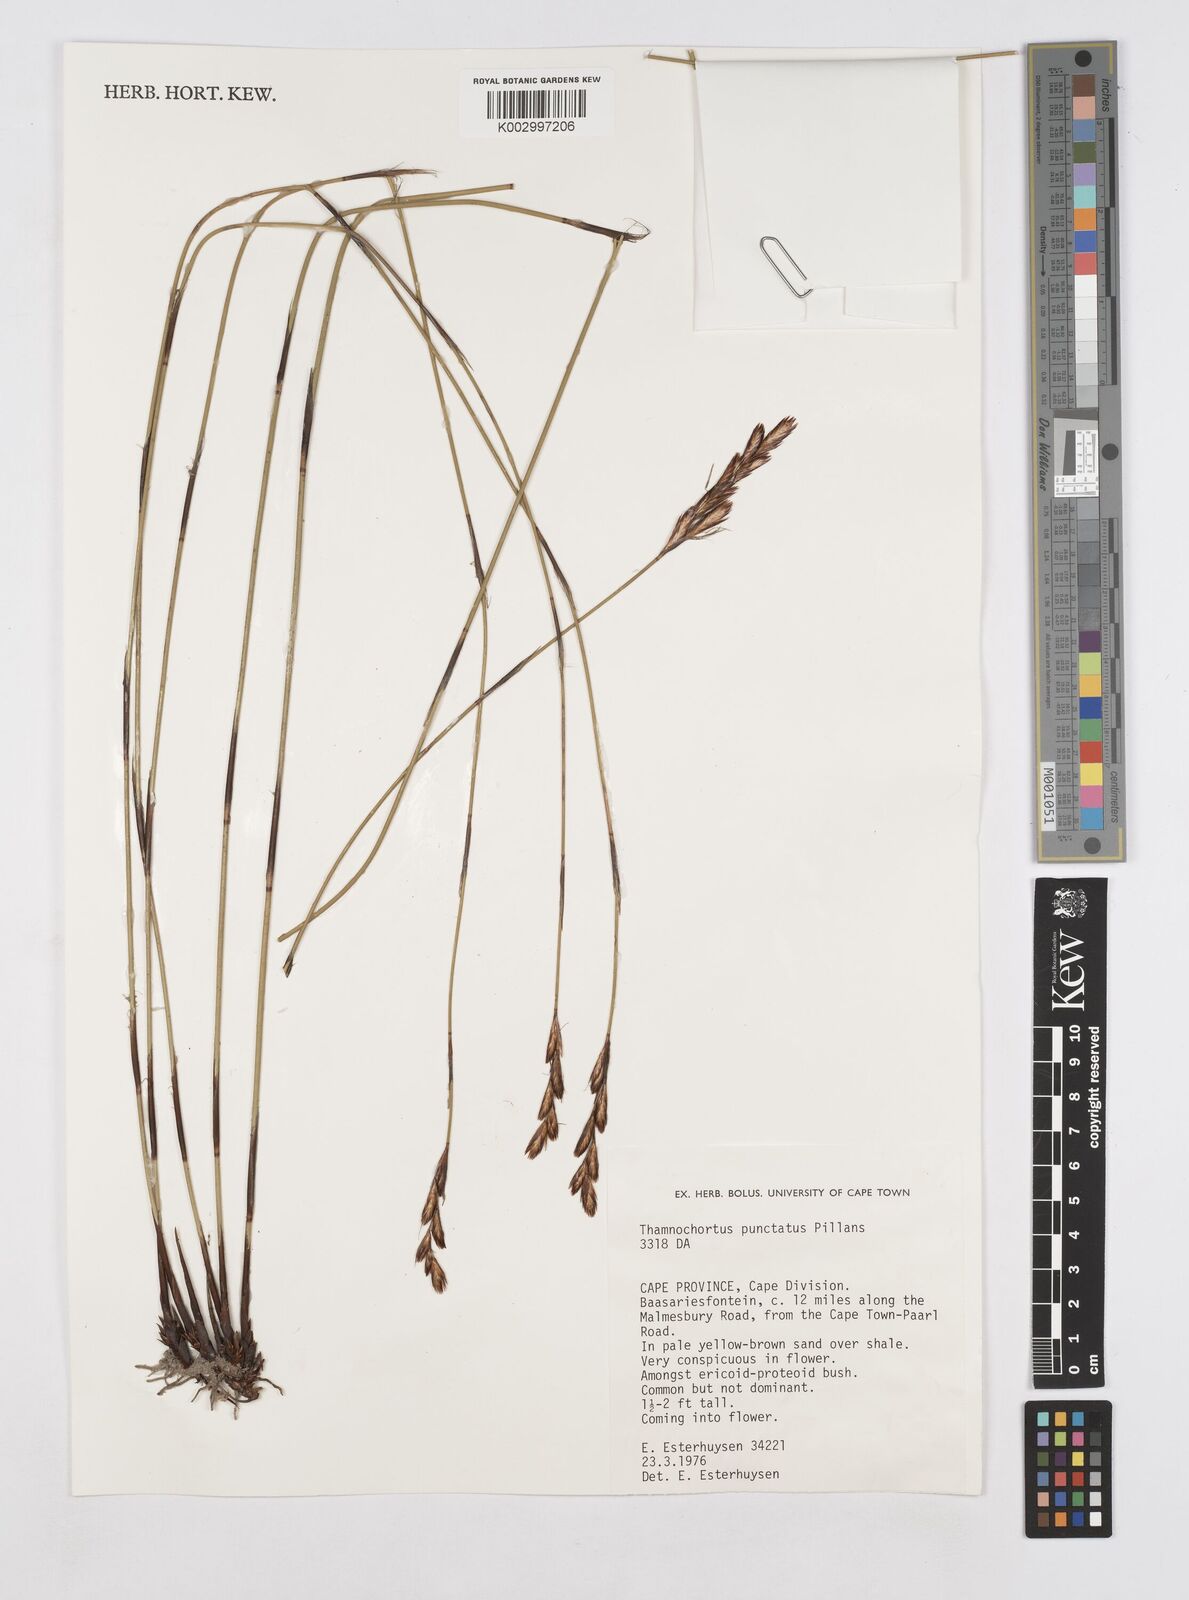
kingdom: Plantae
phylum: Tracheophyta
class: Liliopsida
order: Poales
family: Restionaceae
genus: Thamnochortus
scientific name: Thamnochortus punctatus
